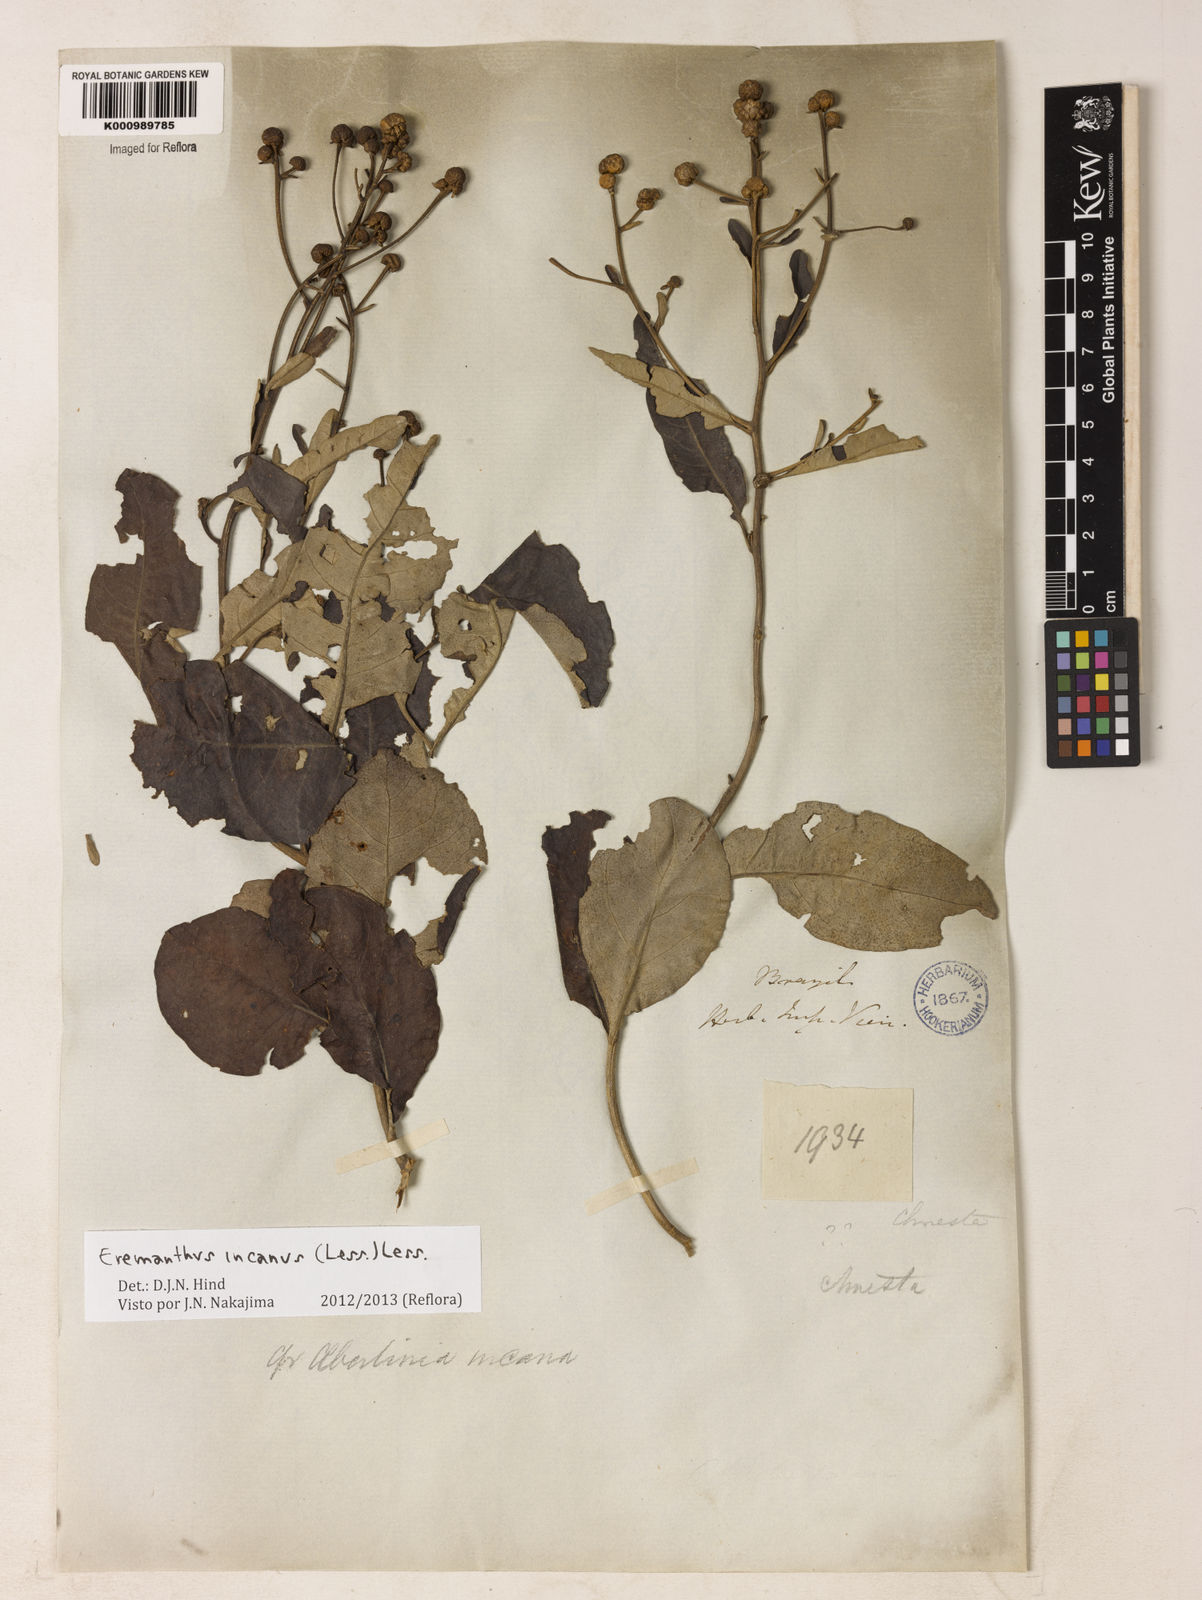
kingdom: Plantae
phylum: Tracheophyta
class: Magnoliopsida
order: Asterales
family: Asteraceae
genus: Eremanthus
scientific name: Eremanthus incanus
